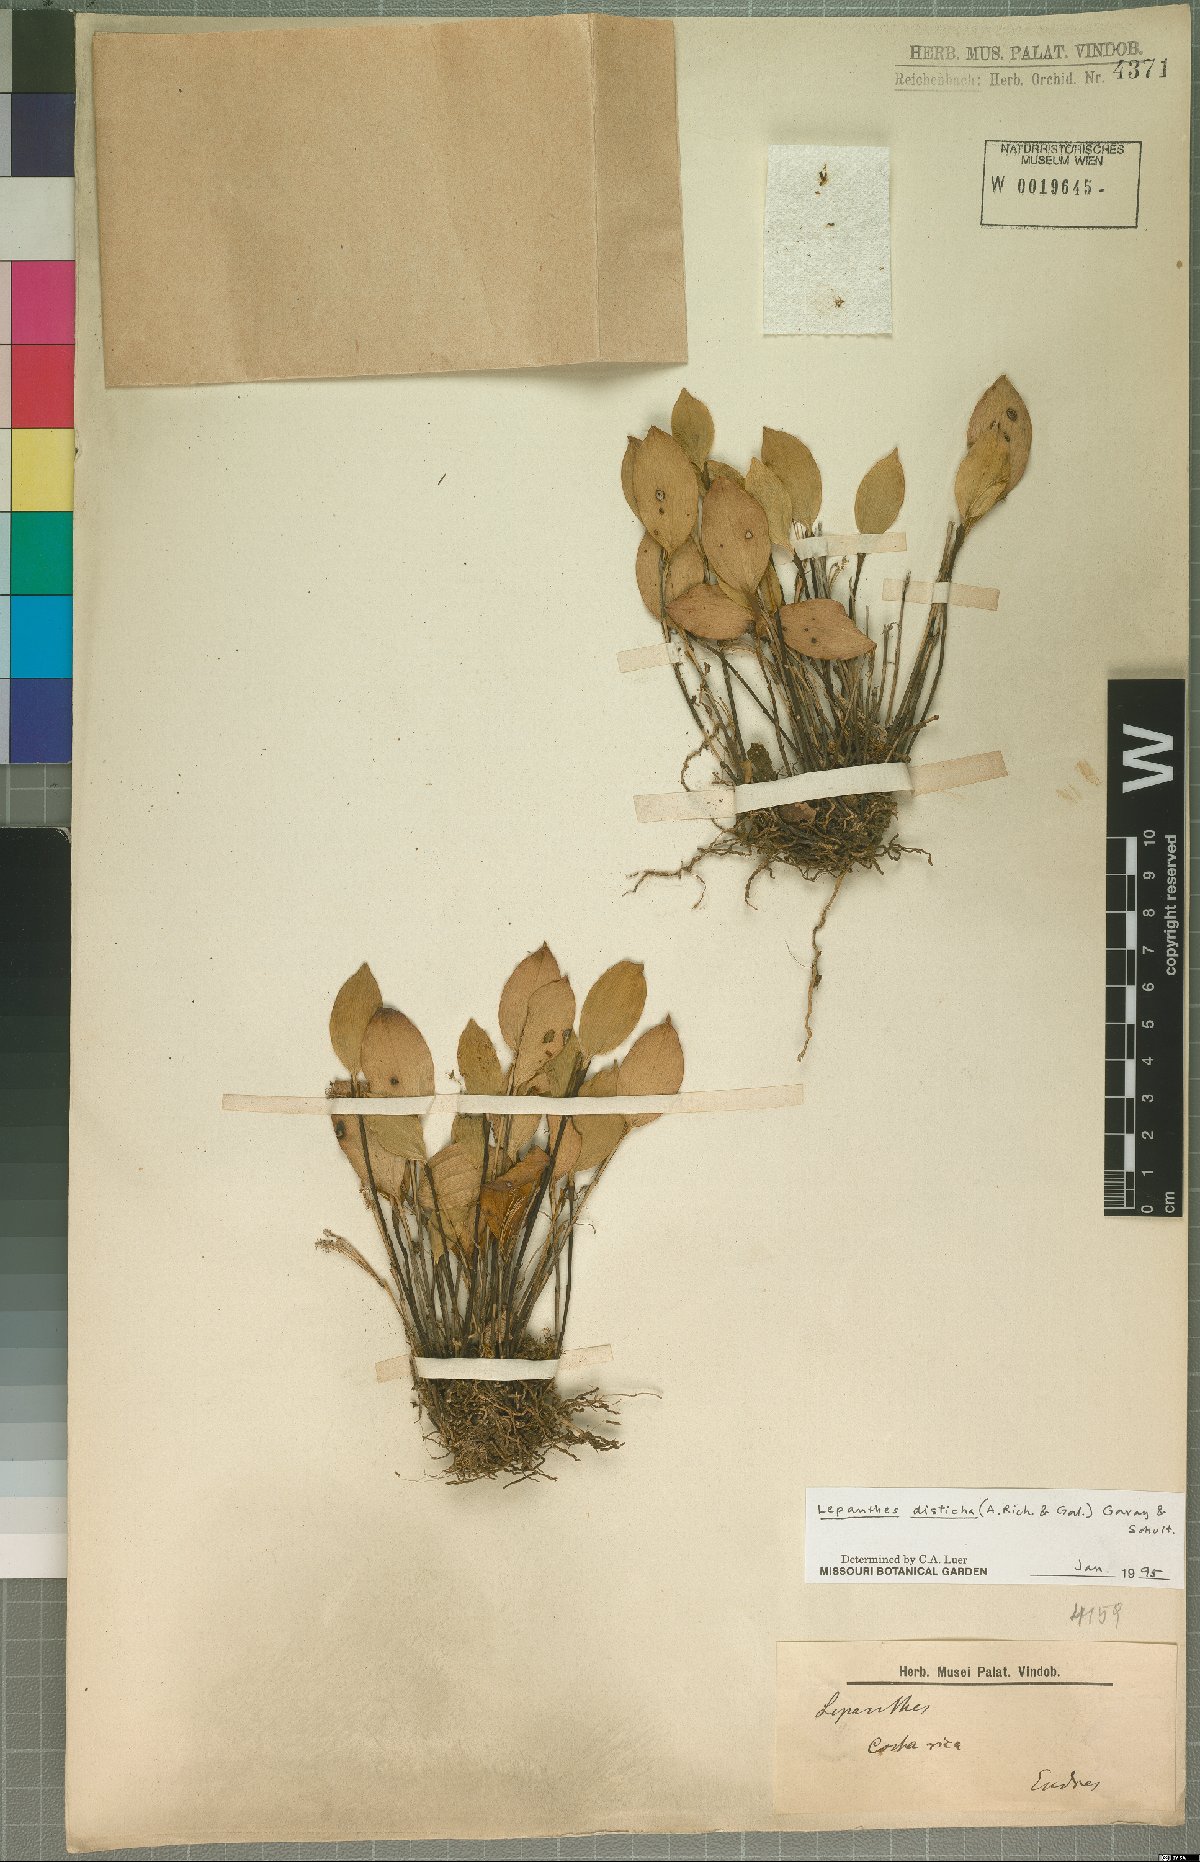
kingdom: Plantae
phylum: Tracheophyta
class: Liliopsida
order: Asparagales
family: Orchidaceae
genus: Lepanthes
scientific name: Lepanthes disticha
